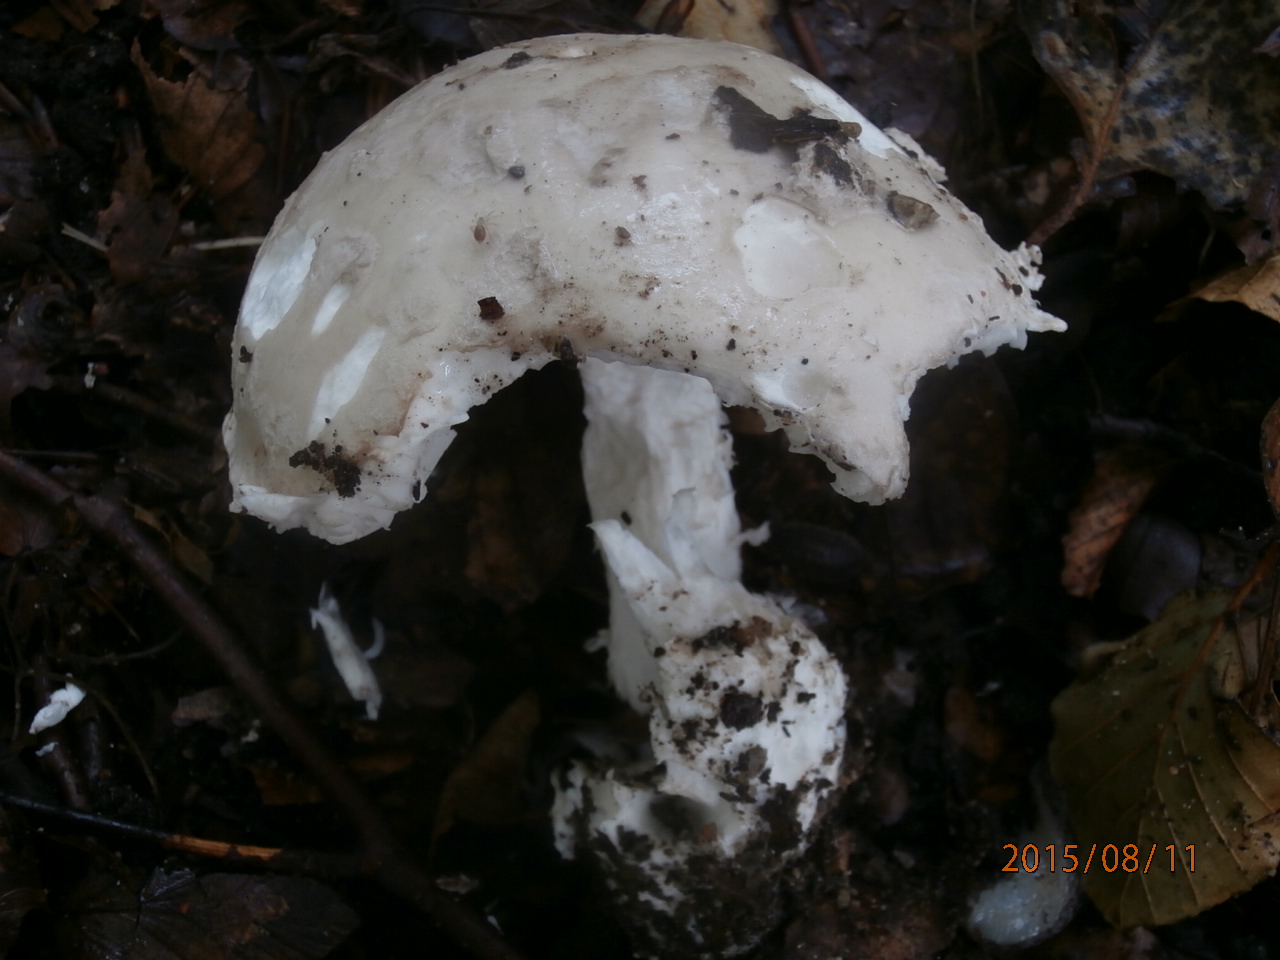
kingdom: Fungi
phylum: Basidiomycota
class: Agaricomycetes
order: Agaricales
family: Amanitaceae
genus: Amanita
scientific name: Amanita
